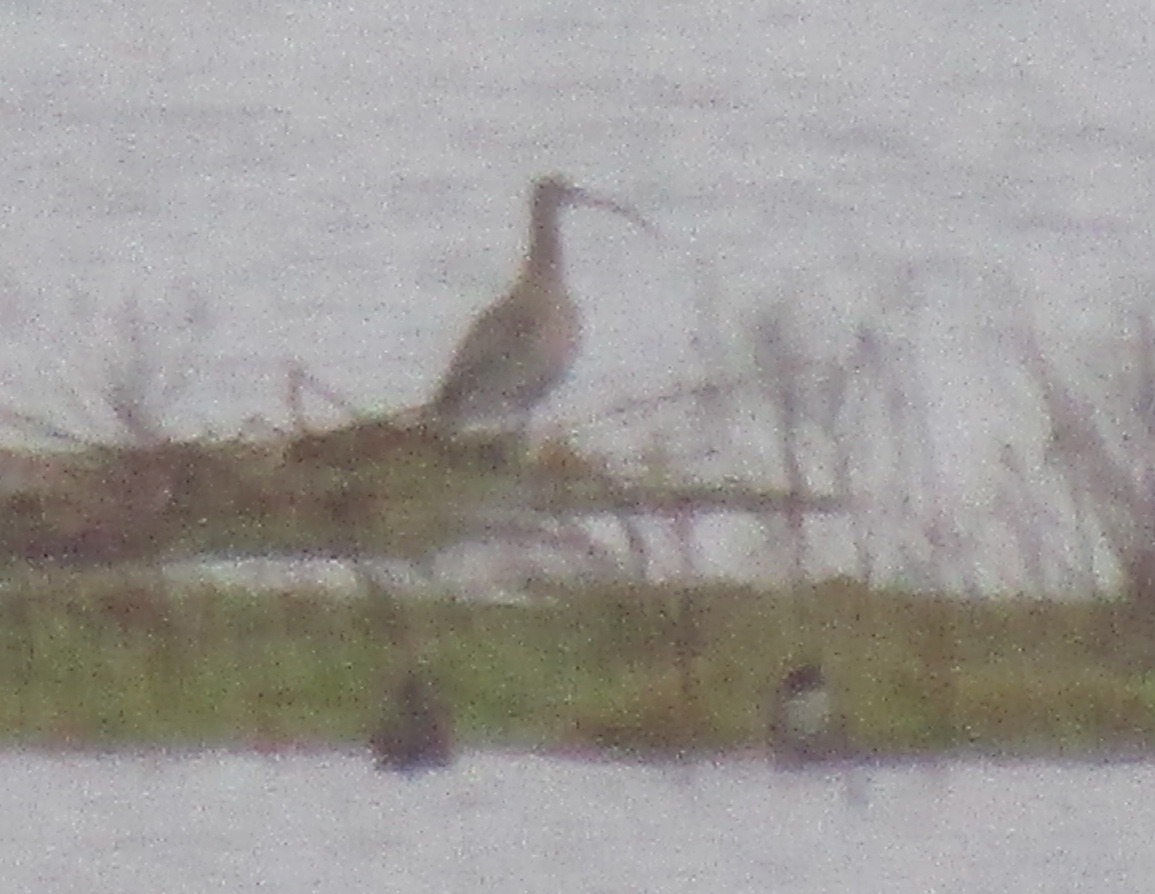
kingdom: Animalia
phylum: Chordata
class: Aves
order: Charadriiformes
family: Scolopacidae
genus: Numenius
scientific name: Numenius arquata
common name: Storspove
